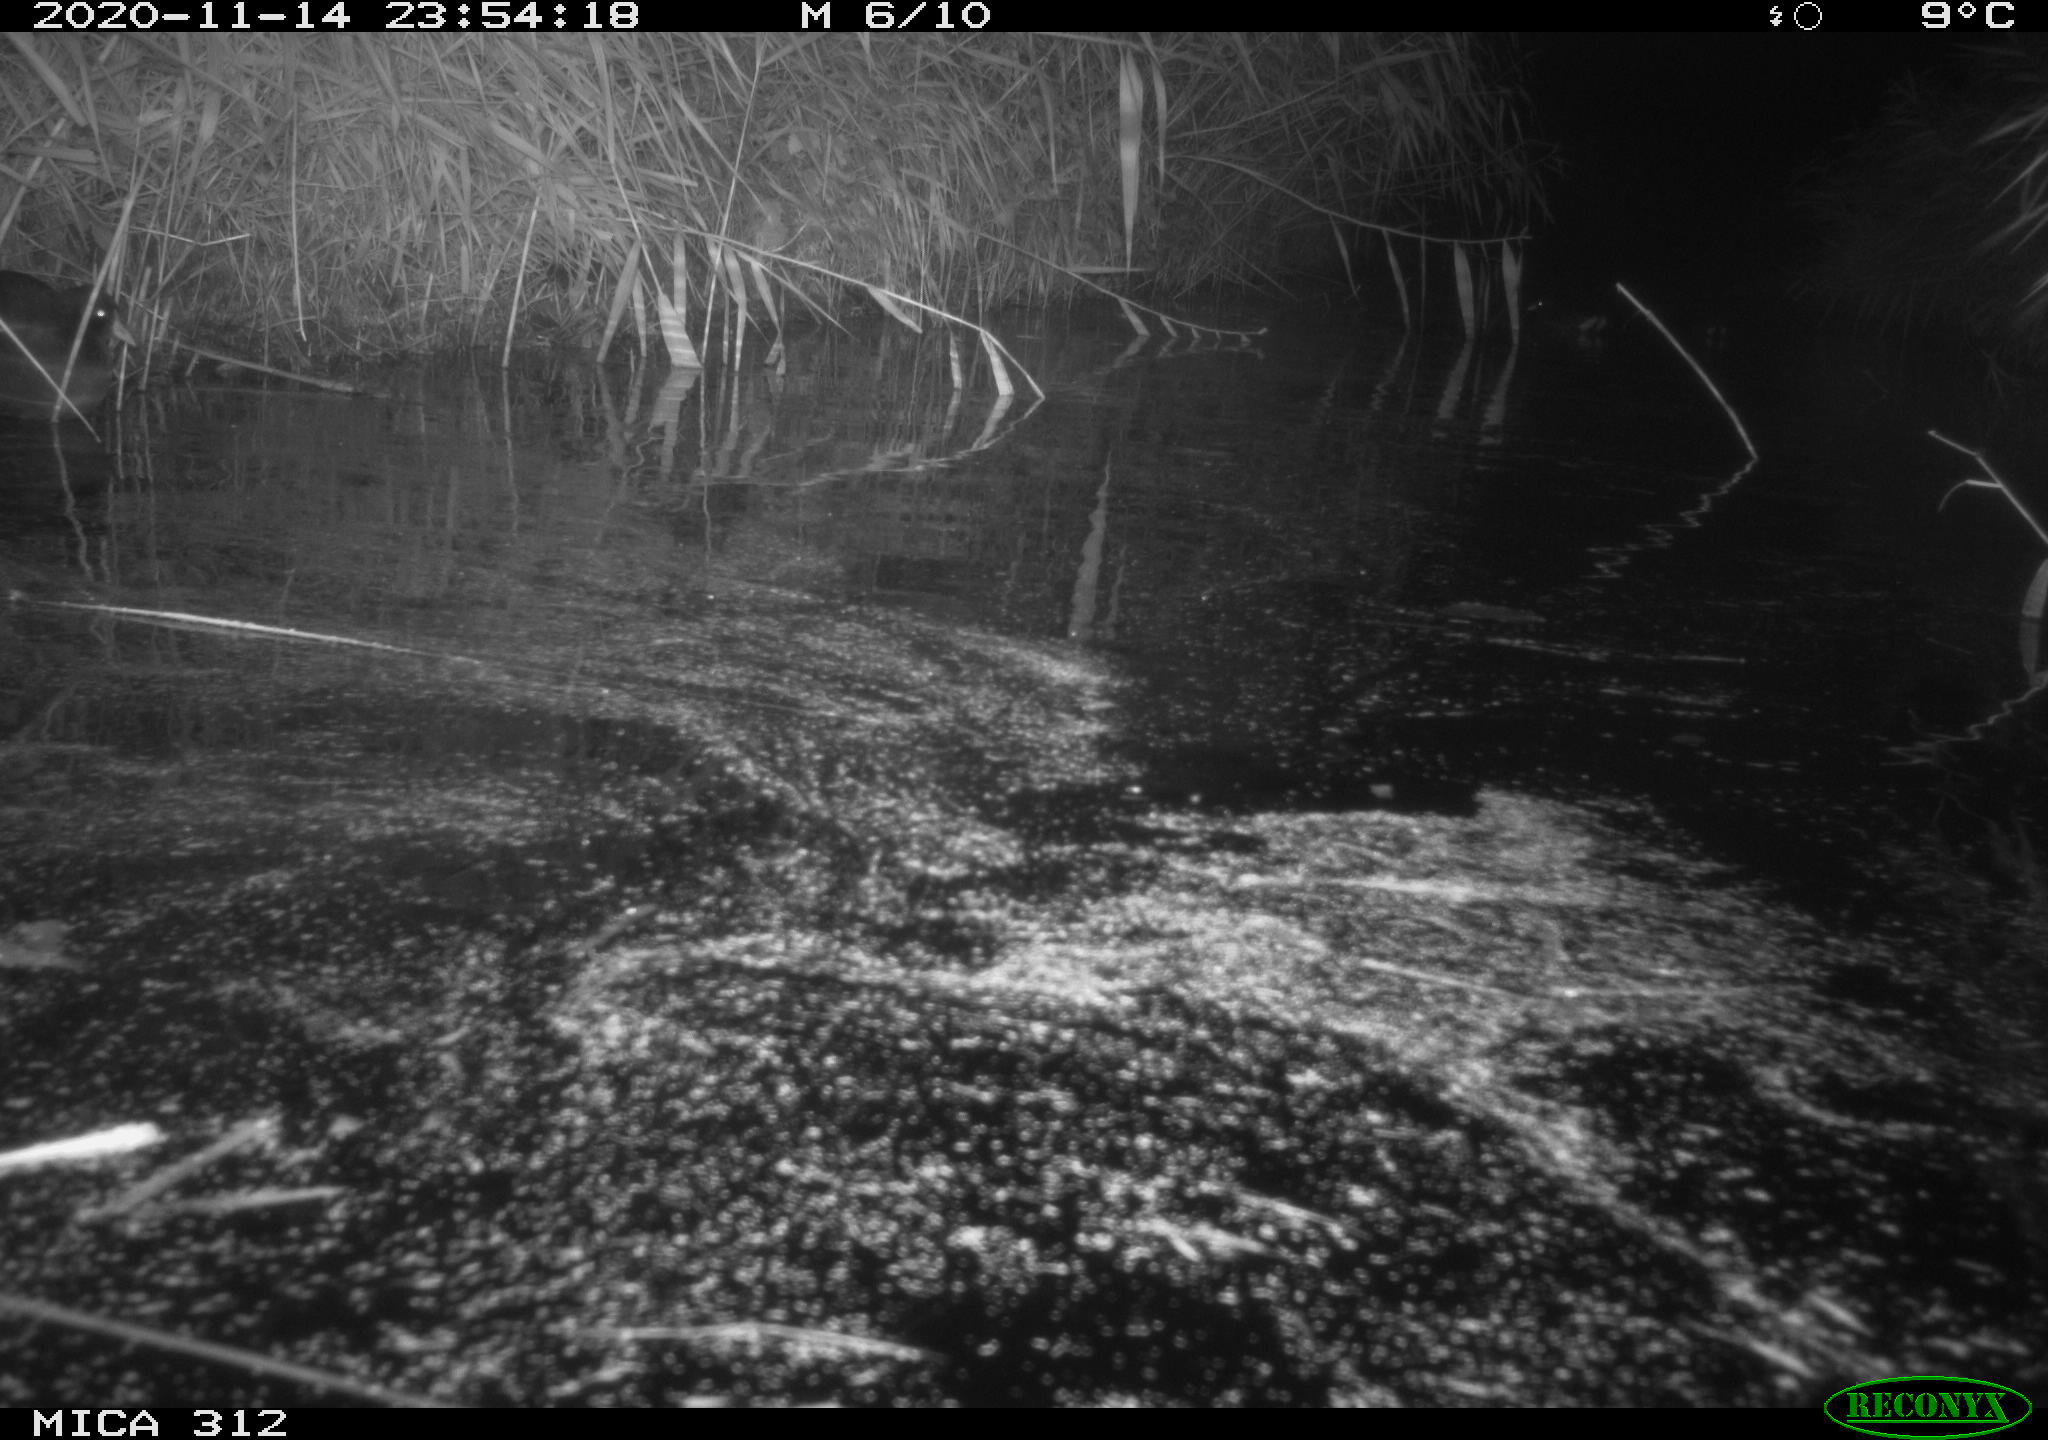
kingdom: Animalia
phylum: Chordata
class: Mammalia
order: Rodentia
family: Muridae
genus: Rattus
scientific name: Rattus norvegicus
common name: Brown rat
